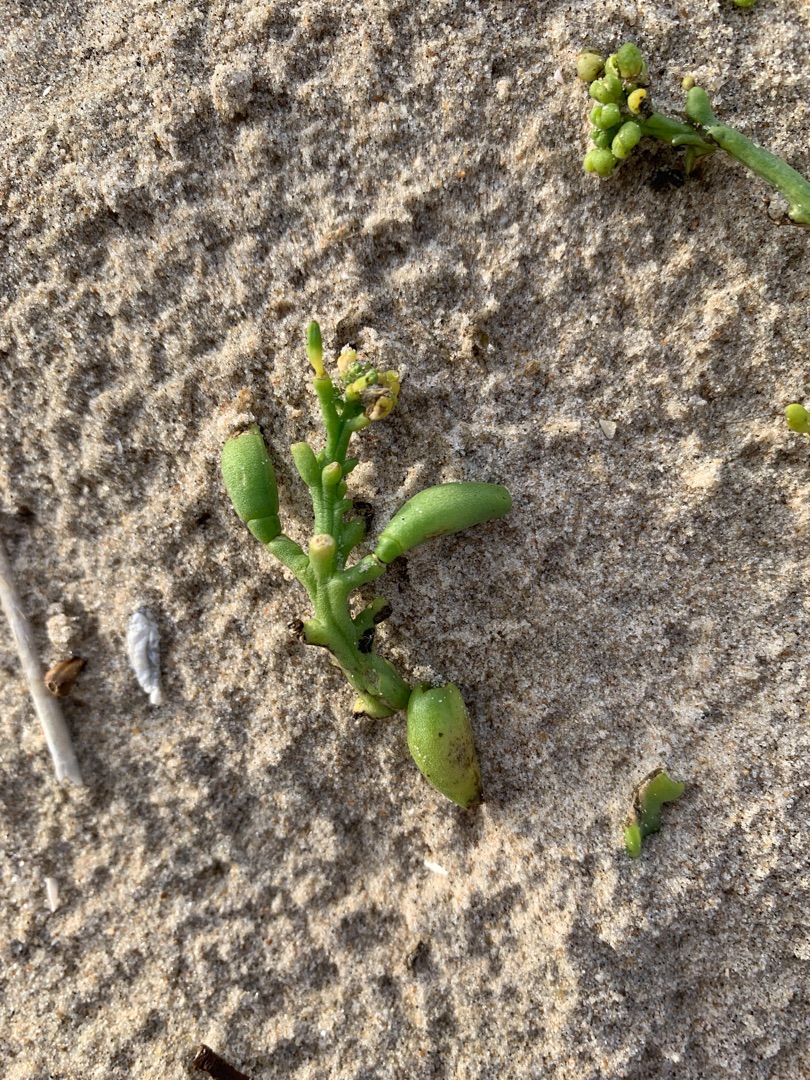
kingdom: Plantae
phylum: Tracheophyta
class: Magnoliopsida
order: Brassicales
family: Brassicaceae
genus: Cakile
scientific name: Cakile maritima
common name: Strandsennep
